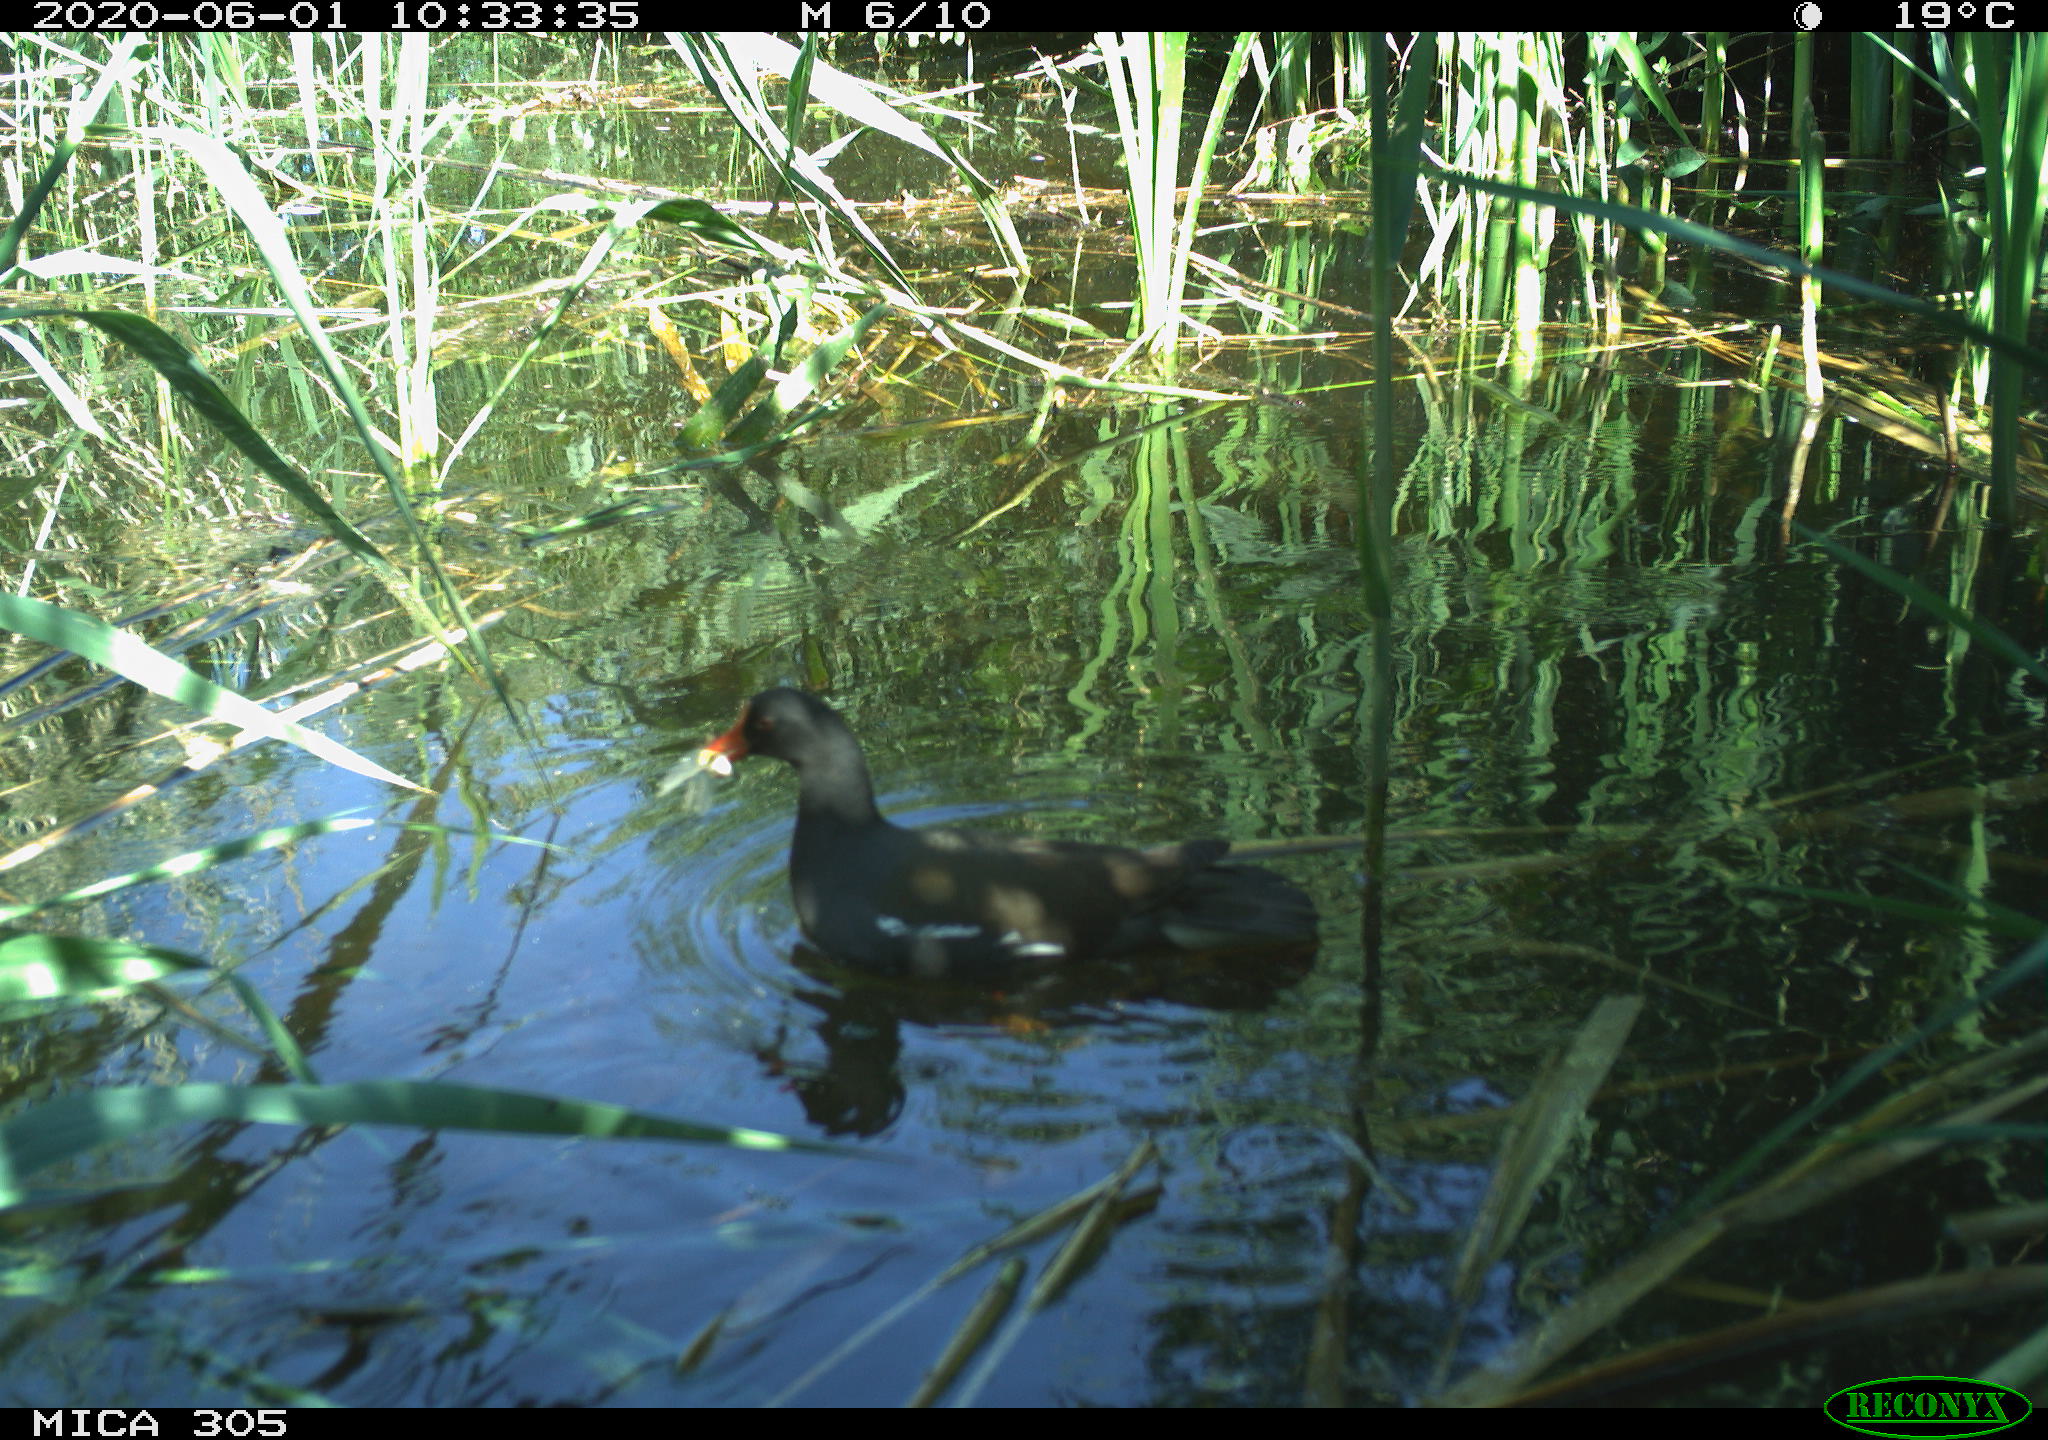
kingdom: Animalia
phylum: Chordata
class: Aves
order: Gruiformes
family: Rallidae
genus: Gallinula
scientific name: Gallinula chloropus
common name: Common moorhen
